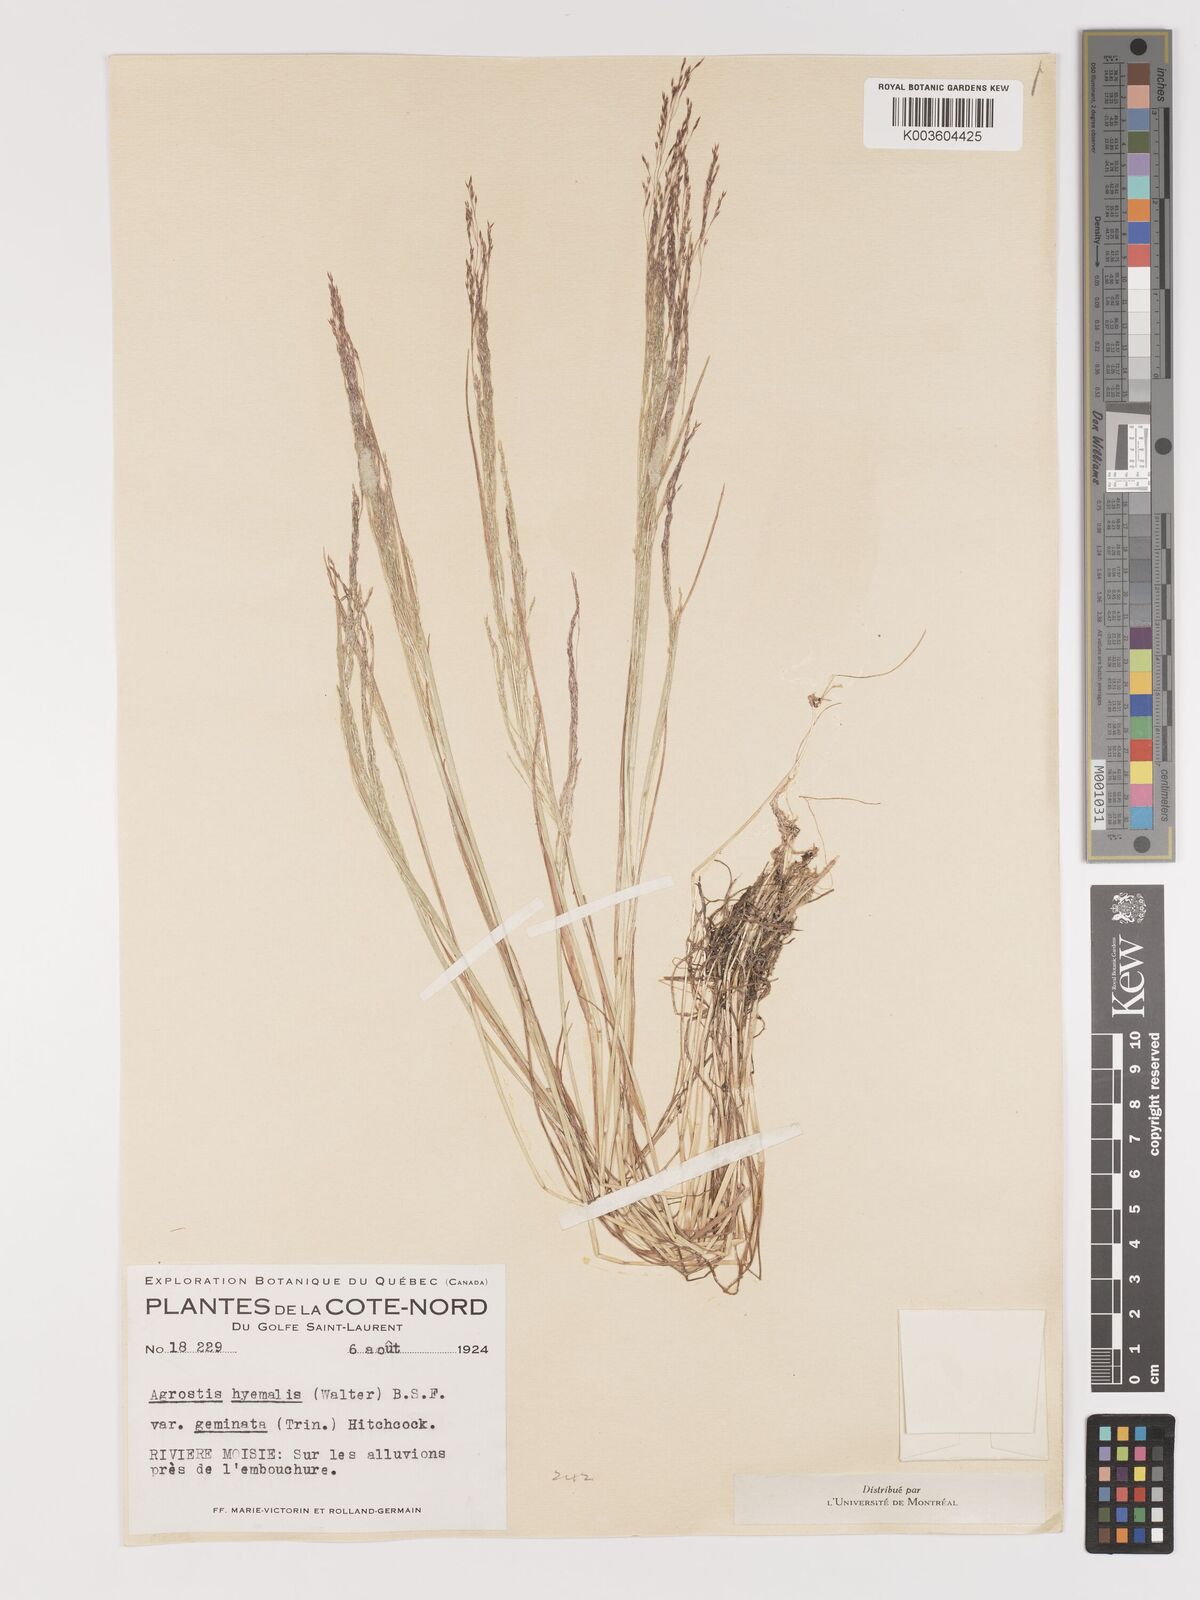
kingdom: Plantae
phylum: Tracheophyta
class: Liliopsida
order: Poales
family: Poaceae
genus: Agrostis
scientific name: Agrostis hyemalis
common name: Small bent
